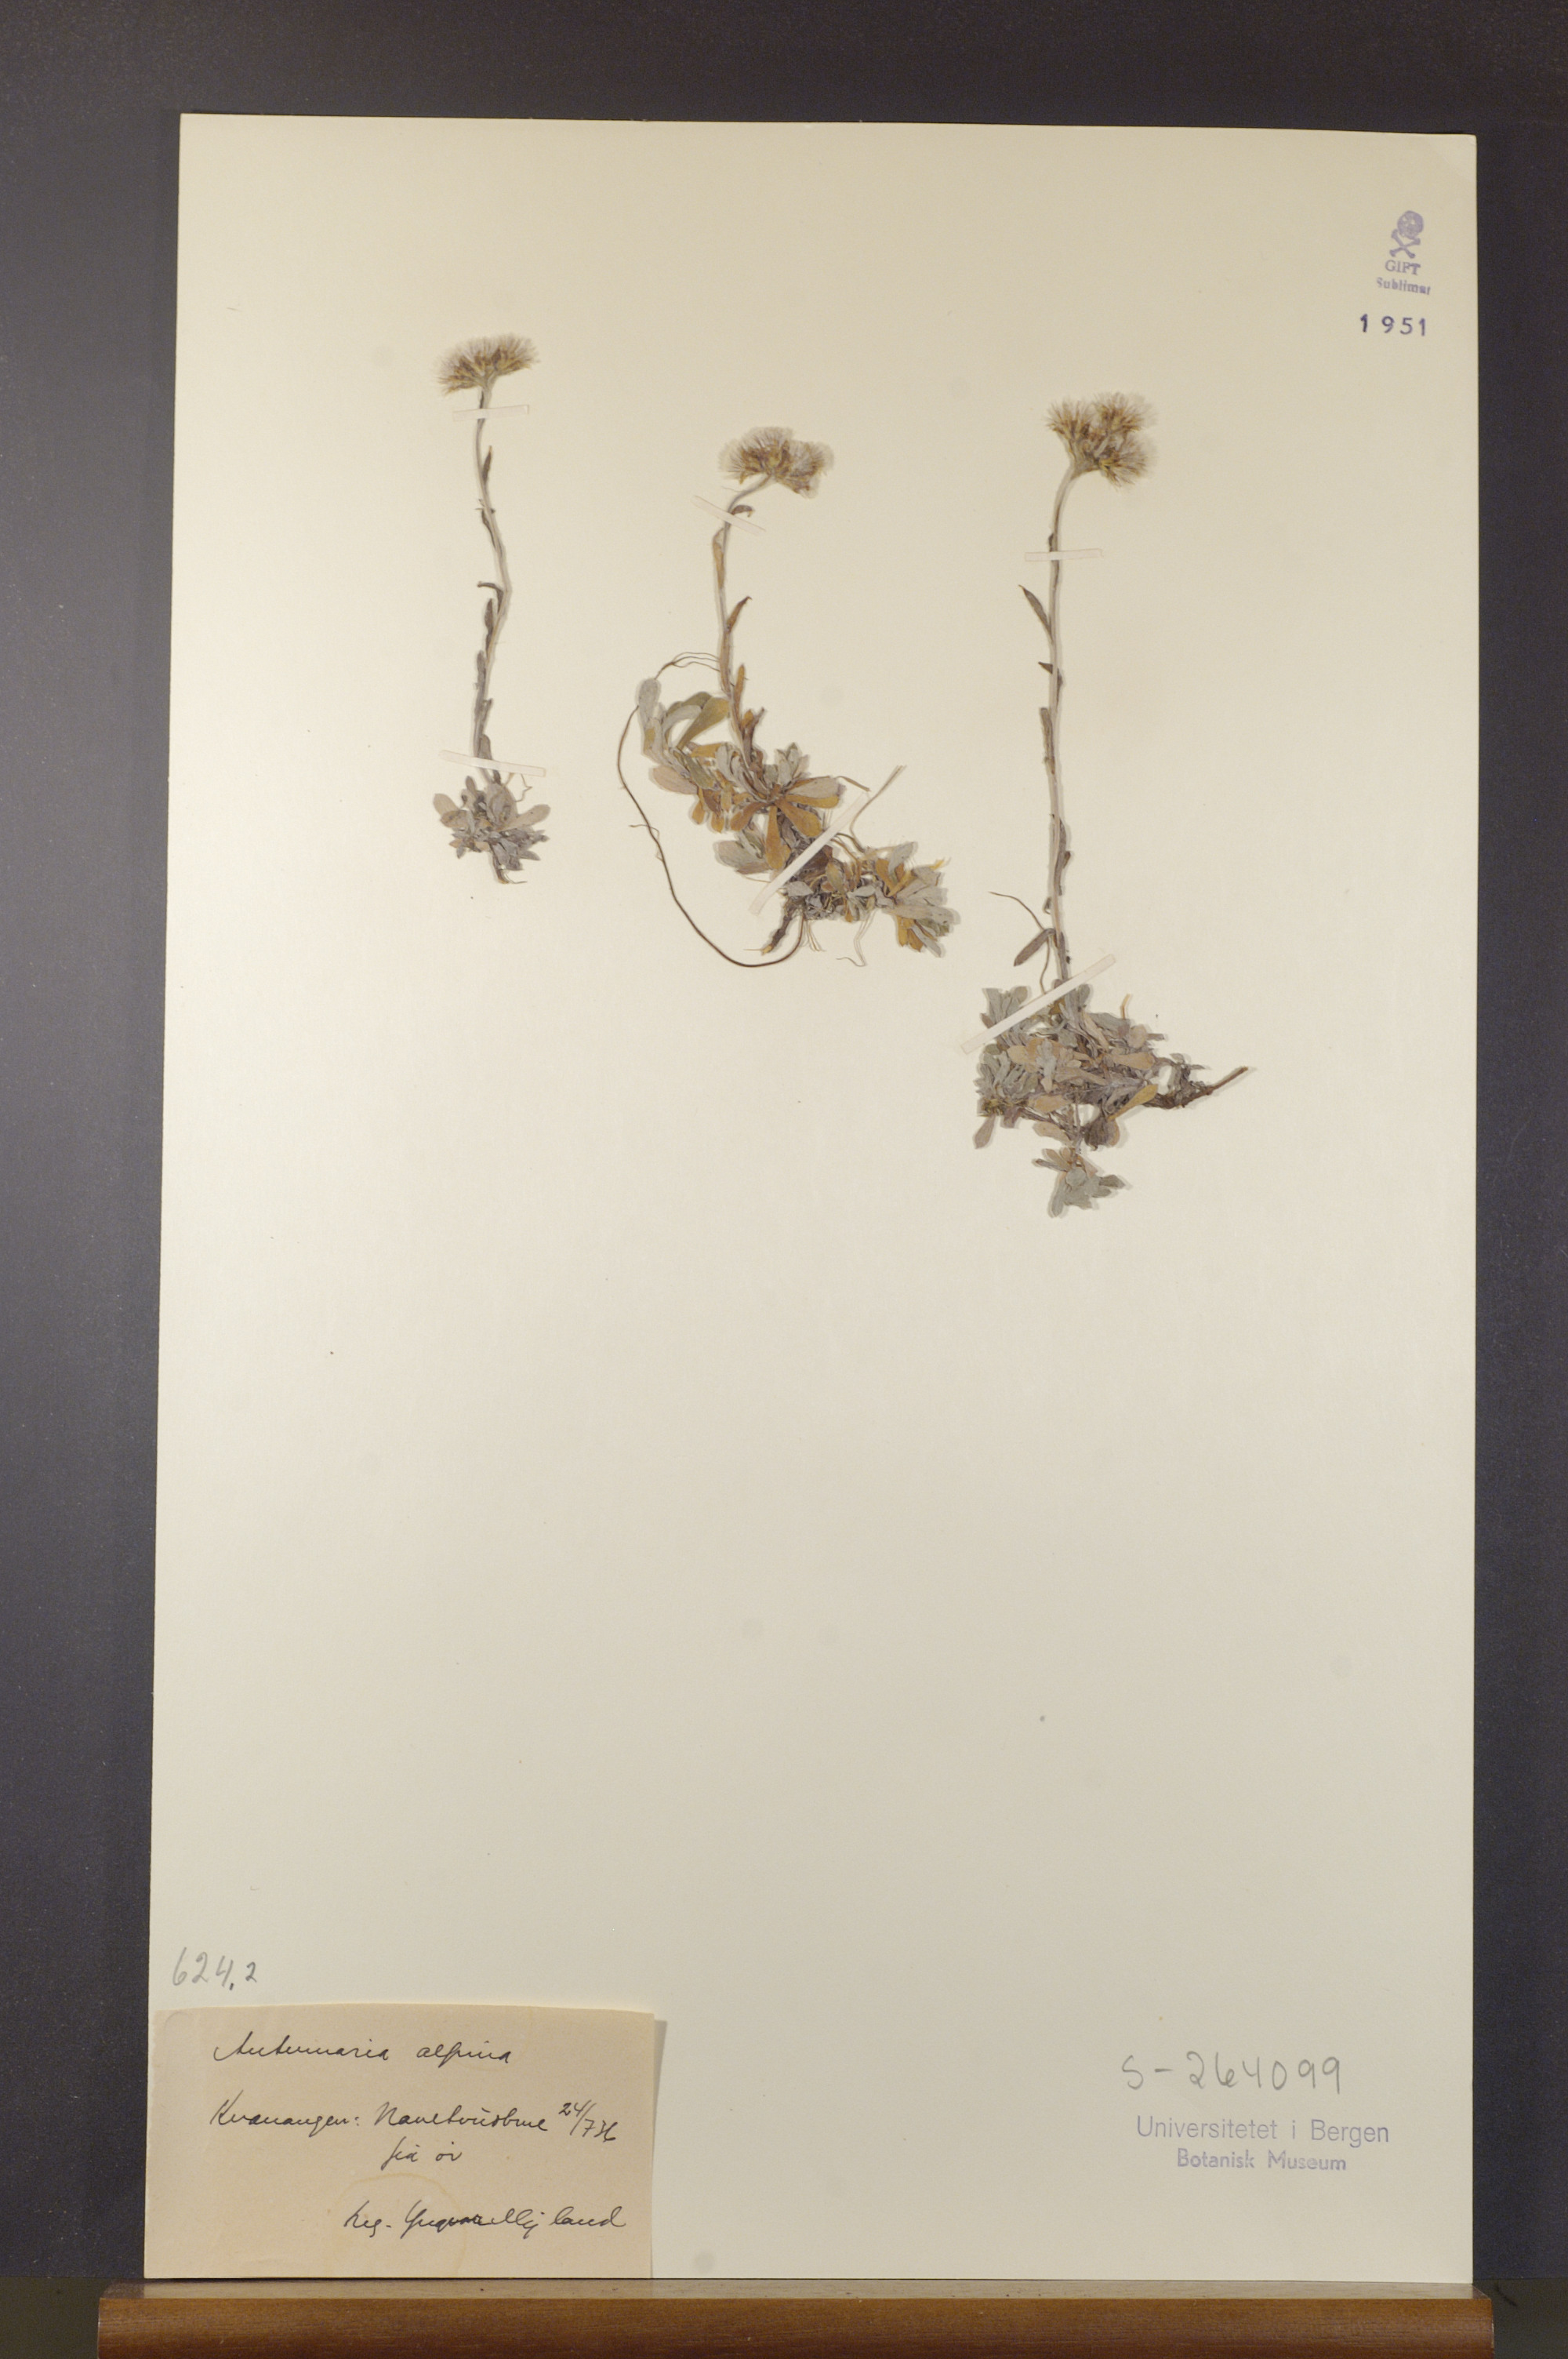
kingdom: Plantae
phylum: Tracheophyta
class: Magnoliopsida
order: Asterales
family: Asteraceae
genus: Antennaria
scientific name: Antennaria alpina
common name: Alpine pussytoes
